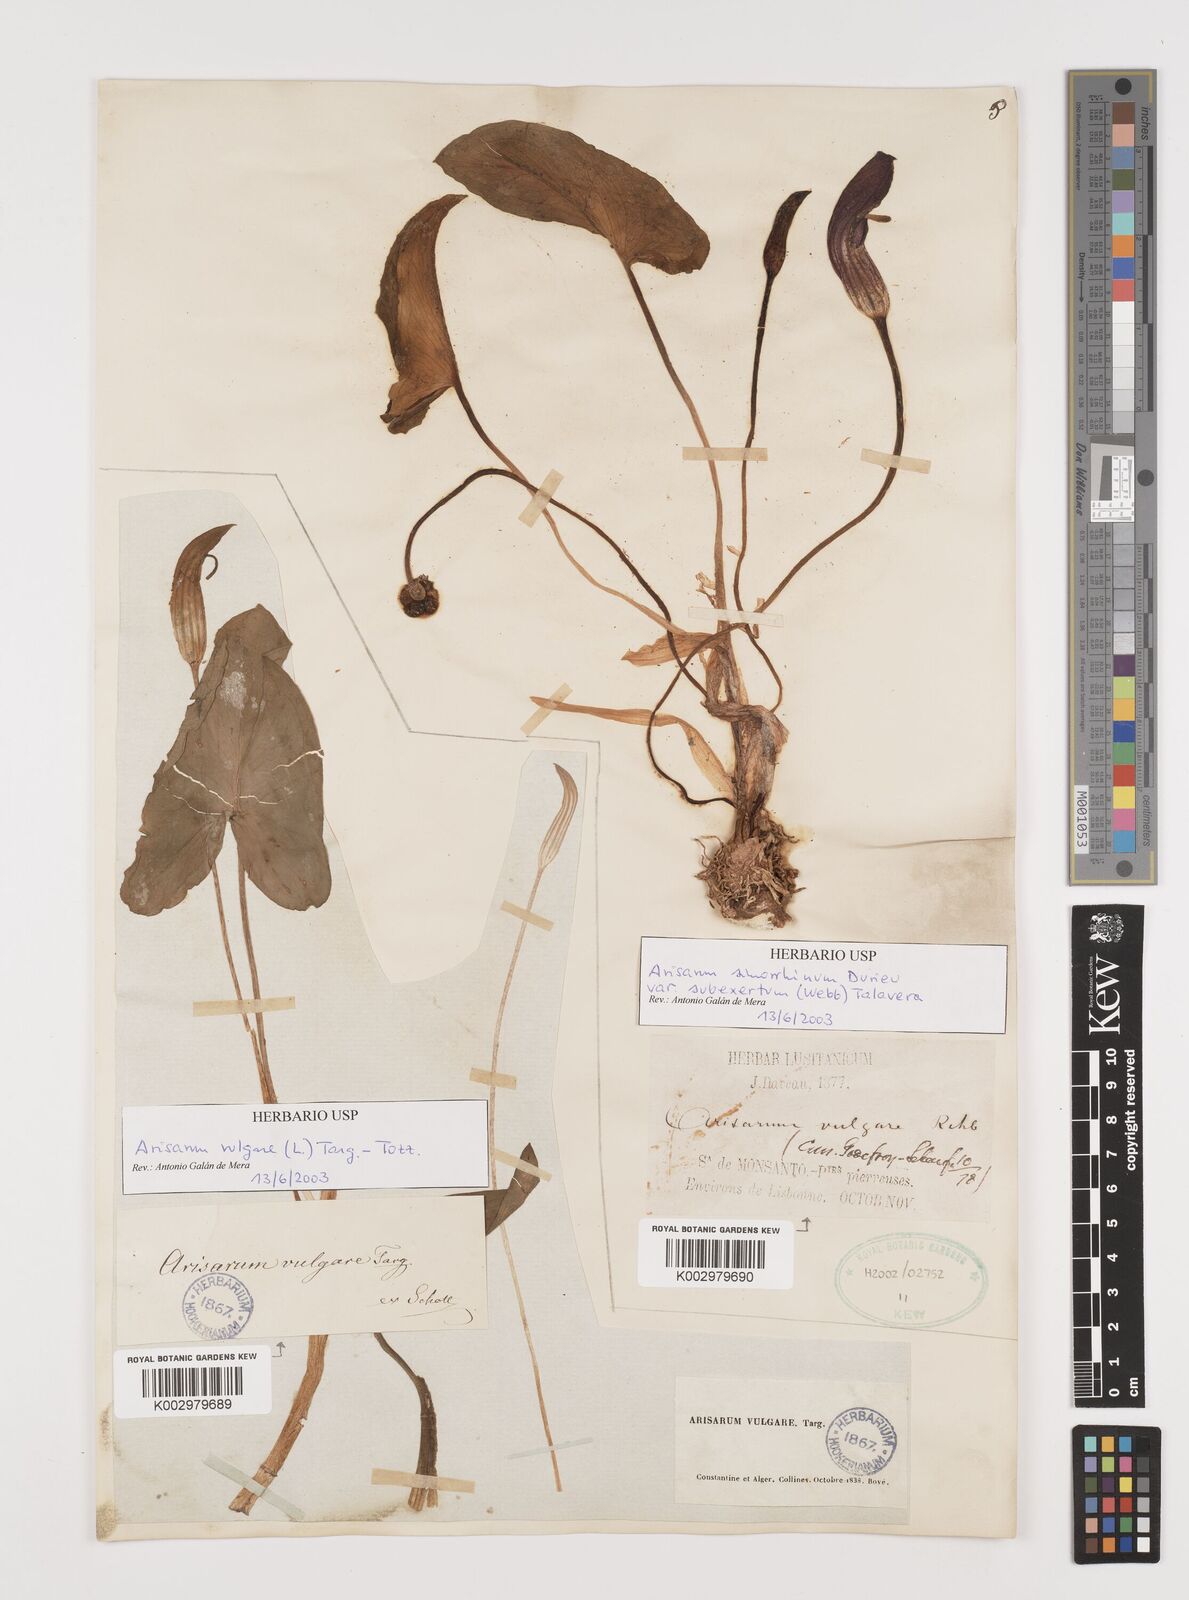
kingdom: Plantae
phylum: Tracheophyta
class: Liliopsida
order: Alismatales
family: Araceae
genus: Arisarum
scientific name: Arisarum simorrhinum
